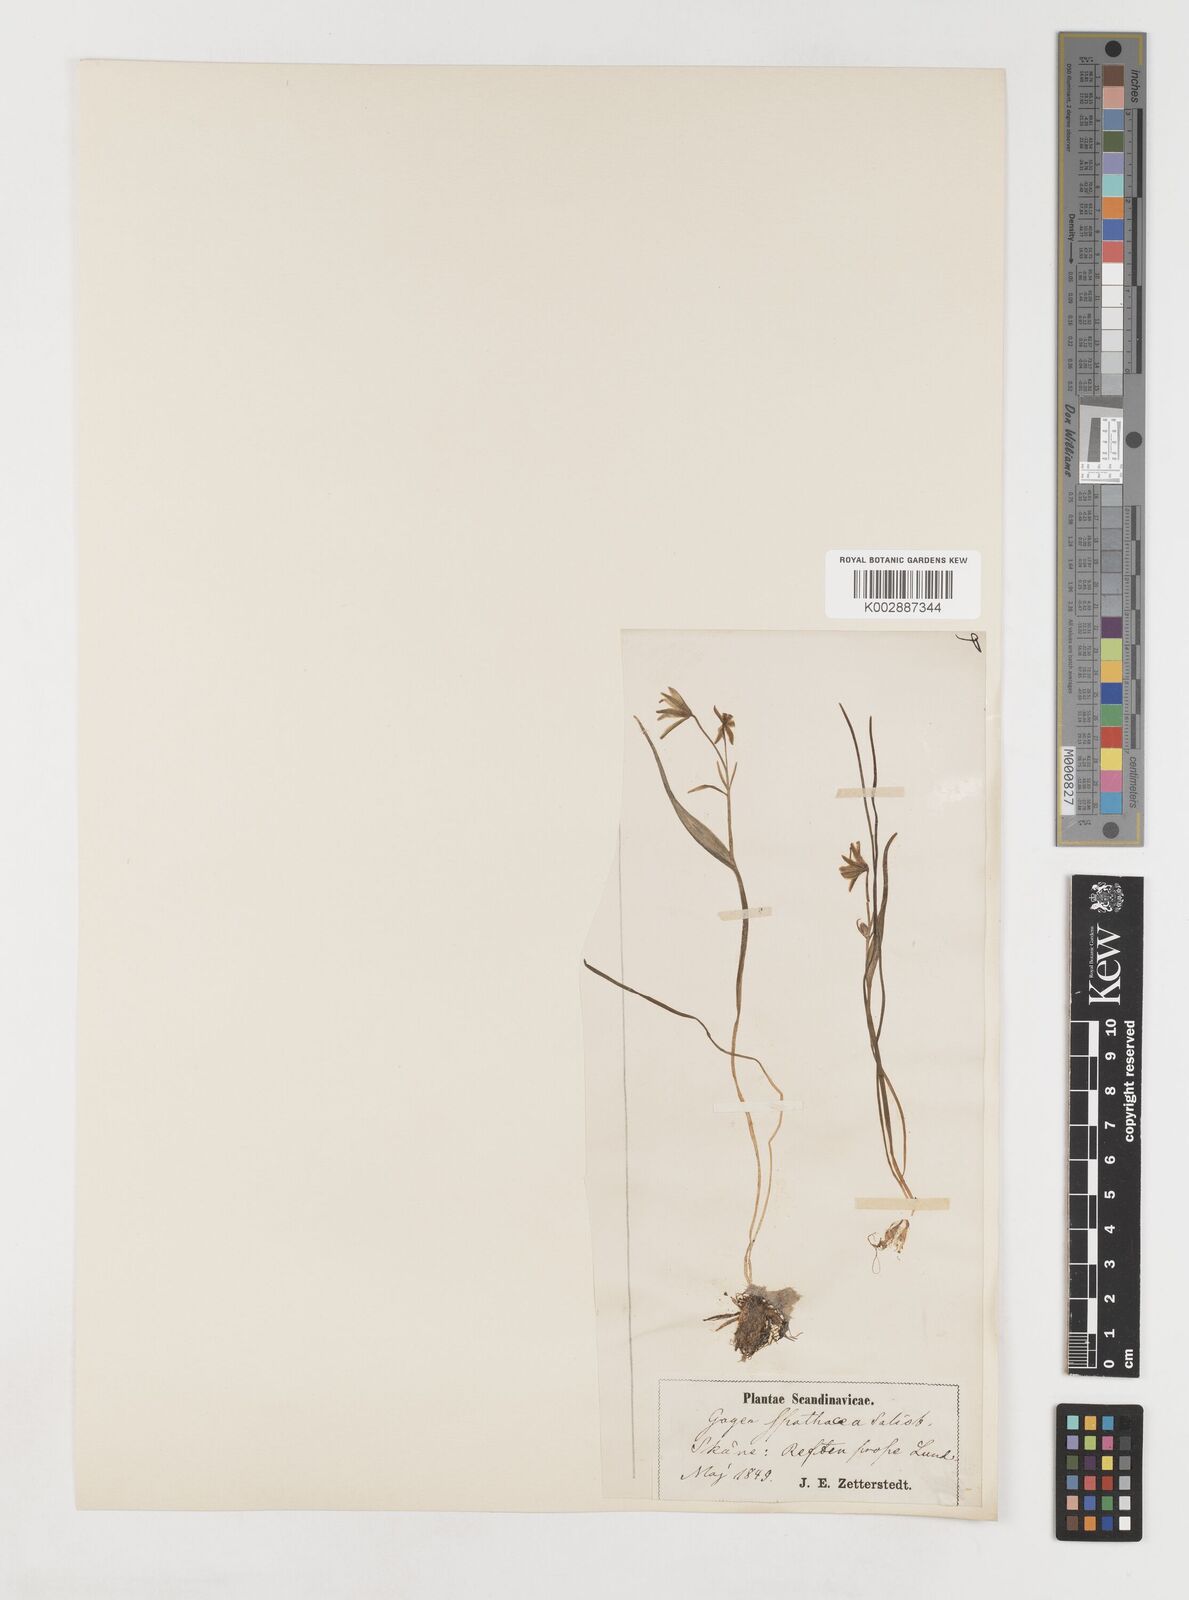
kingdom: Plantae
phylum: Tracheophyta
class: Liliopsida
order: Liliales
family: Liliaceae
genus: Gagea
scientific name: Gagea spathacea
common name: Belgian gagea
